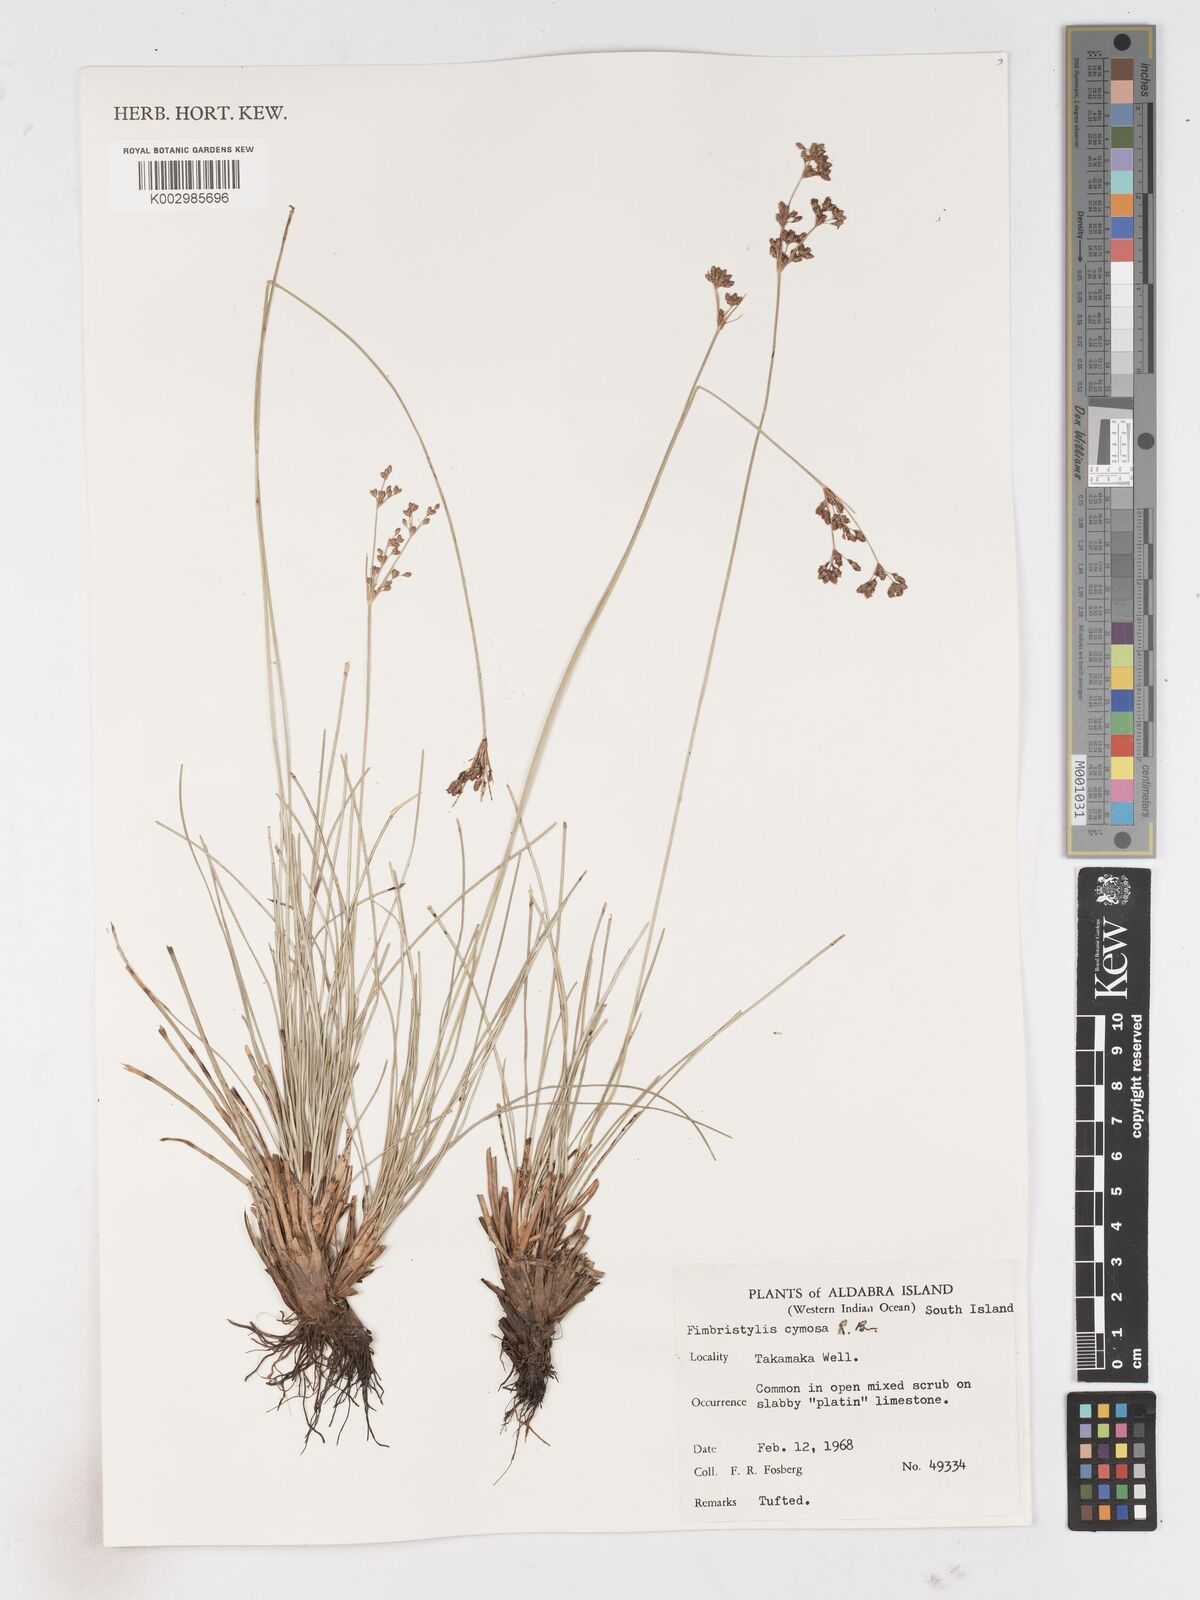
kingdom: Plantae
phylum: Tracheophyta
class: Liliopsida
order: Poales
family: Cyperaceae
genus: Fimbristylis
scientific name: Fimbristylis cymosa
